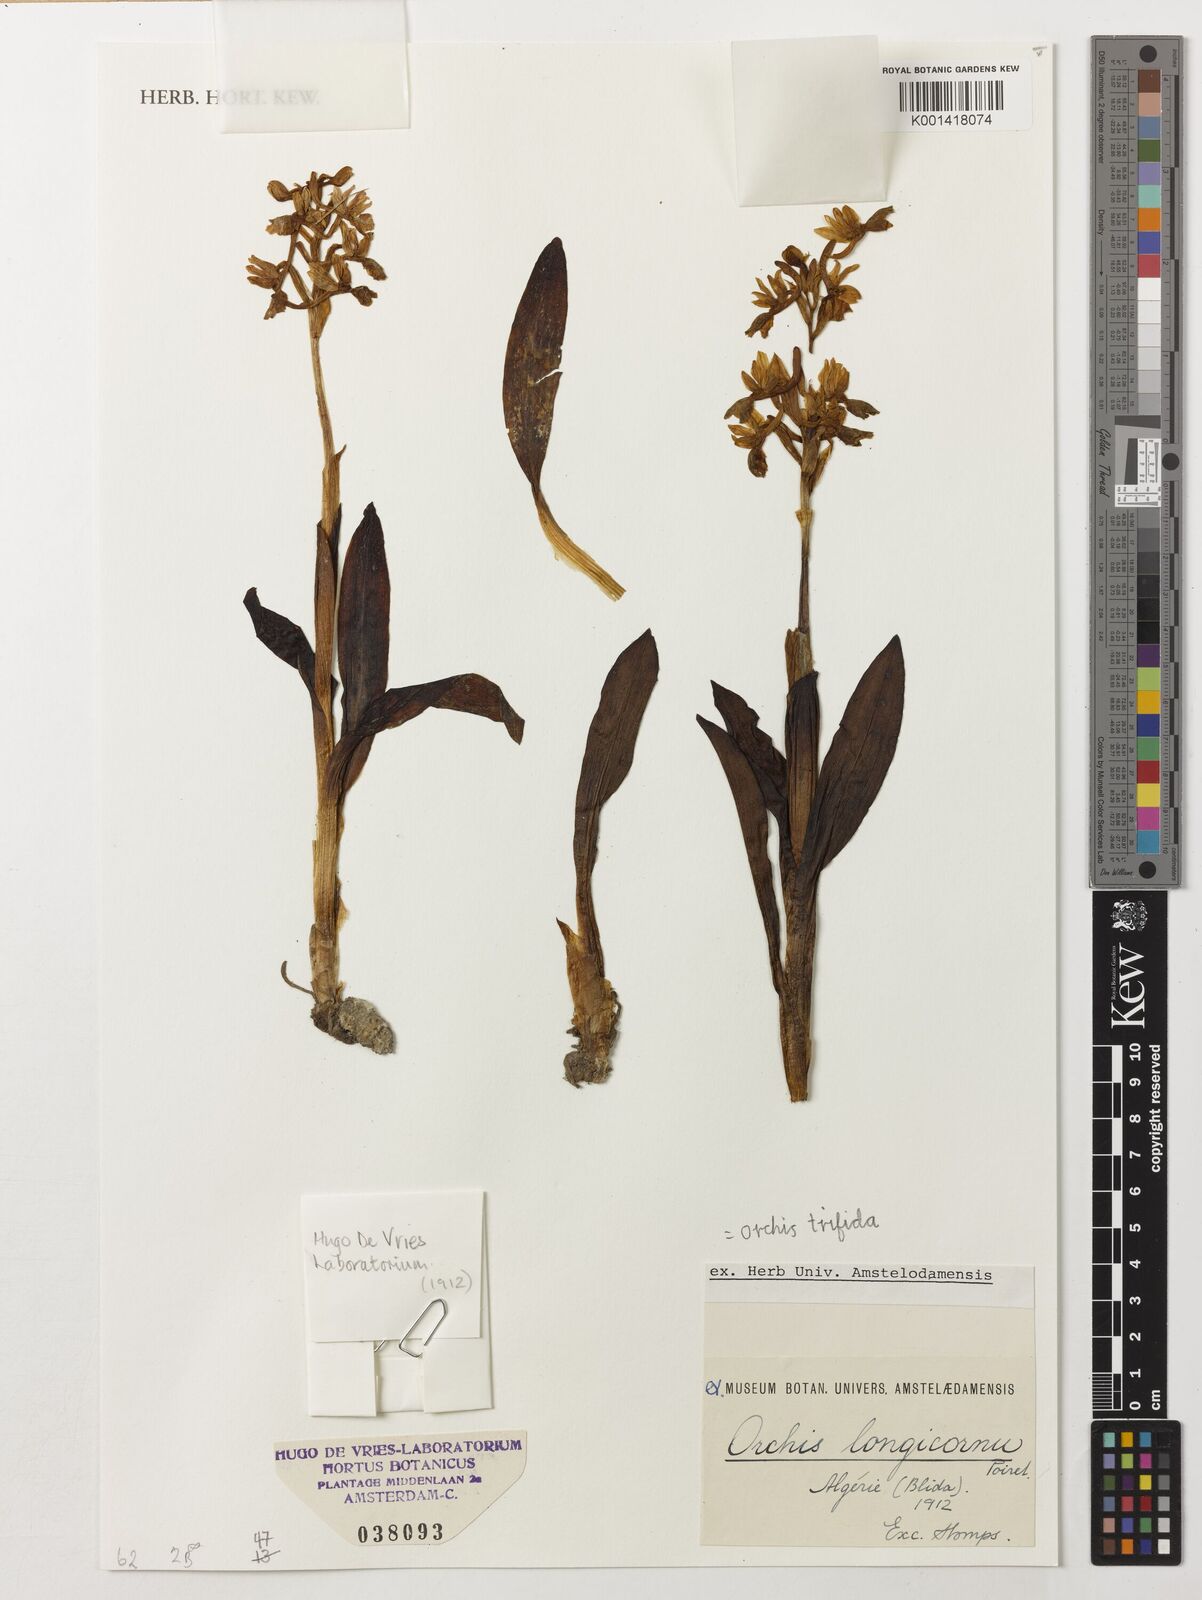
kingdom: Plantae
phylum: Tracheophyta
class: Liliopsida
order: Asparagales
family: Orchidaceae
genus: Orchis
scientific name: Orchis
